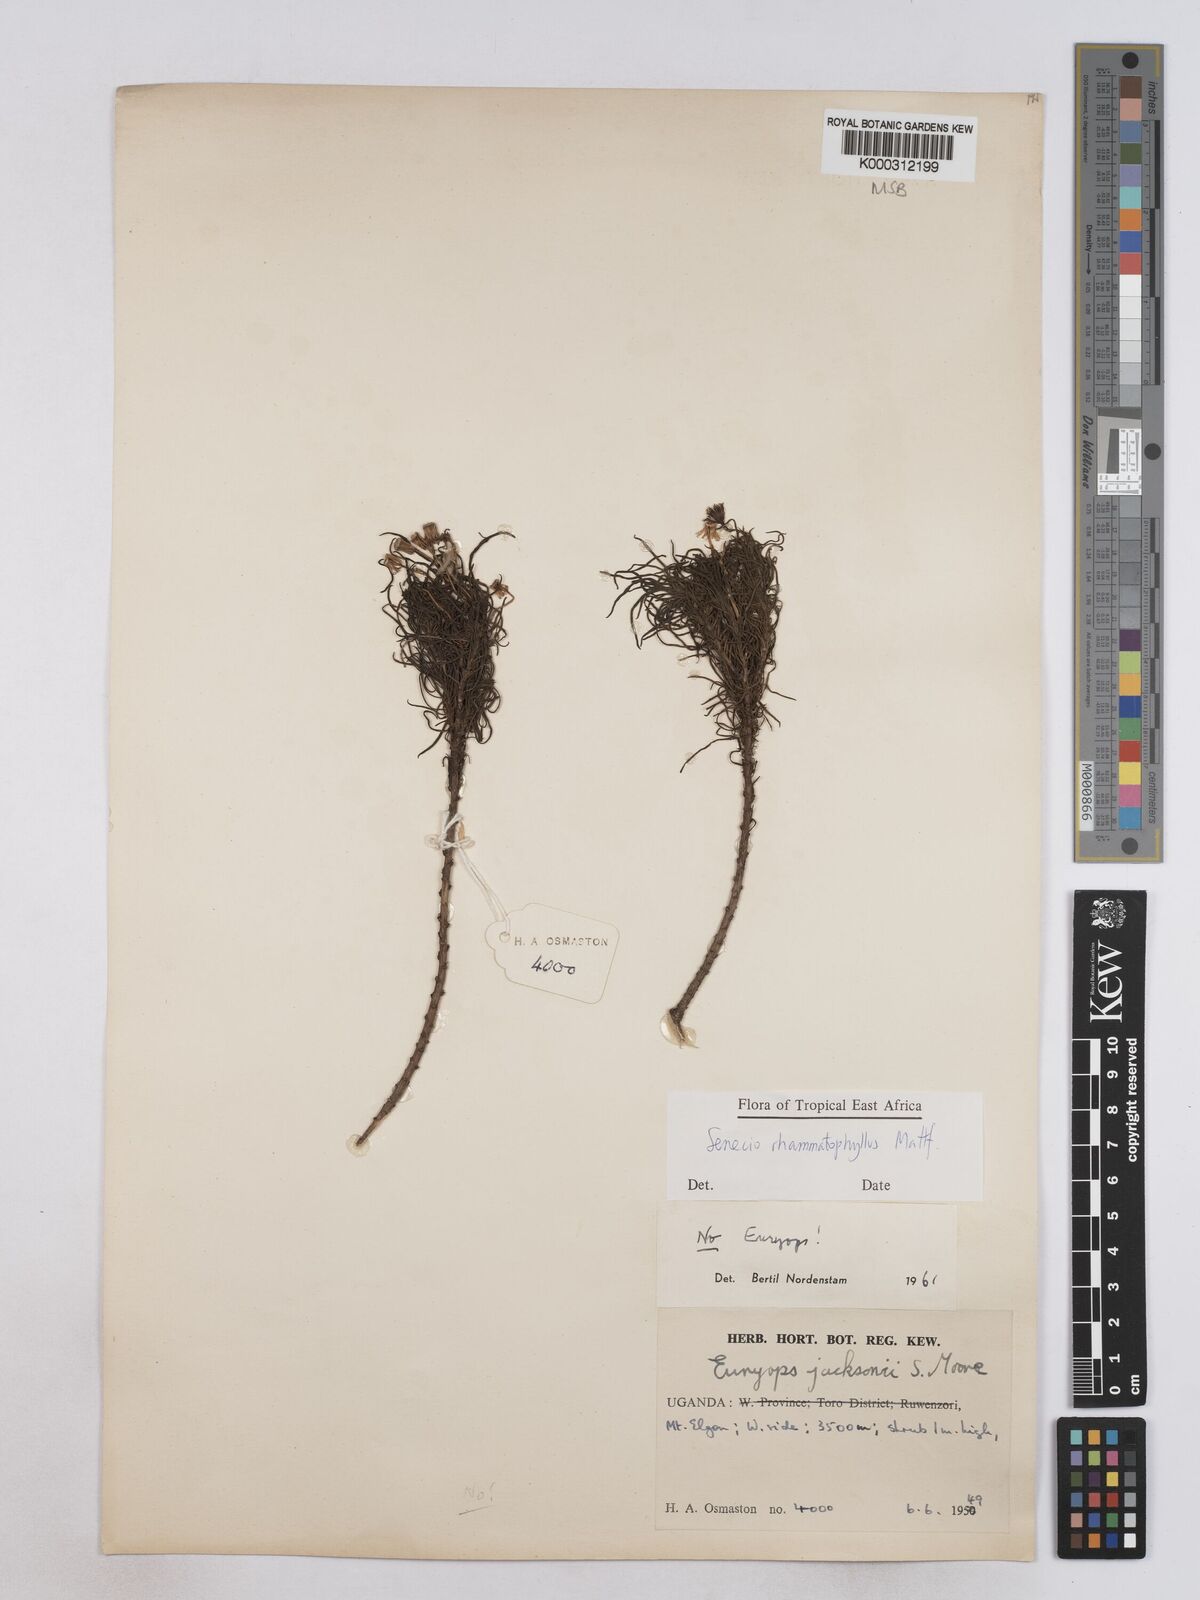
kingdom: Plantae
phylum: Tracheophyta
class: Magnoliopsida
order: Asterales
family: Asteraceae
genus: Senecio
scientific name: Senecio rhammatophyllus
